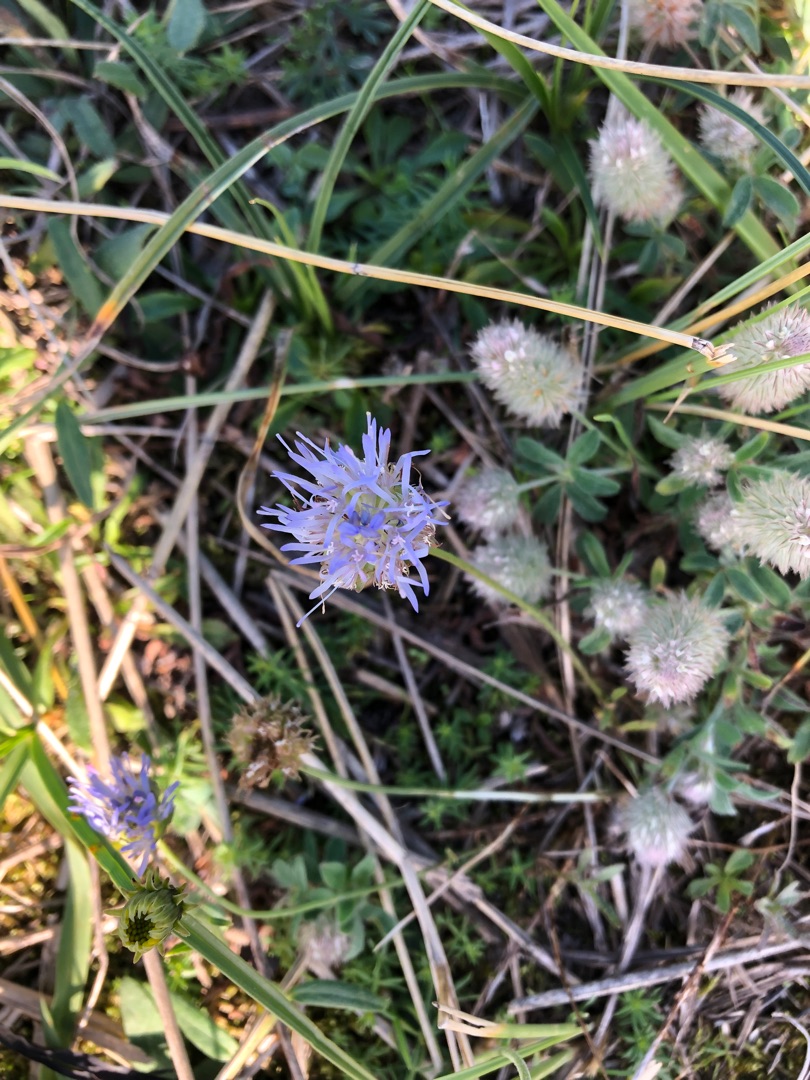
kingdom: Plantae
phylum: Tracheophyta
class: Magnoliopsida
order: Asterales
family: Campanulaceae
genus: Jasione
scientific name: Jasione montana
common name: Blåmunke
